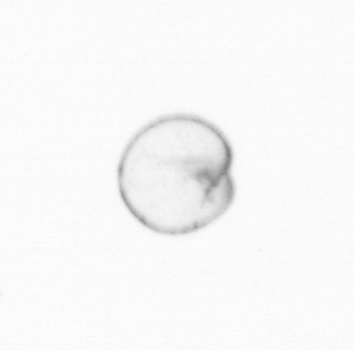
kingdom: Chromista
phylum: Myzozoa
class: Dinophyceae
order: Noctilucales
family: Noctilucaceae
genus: Noctiluca
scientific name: Noctiluca scintillans
